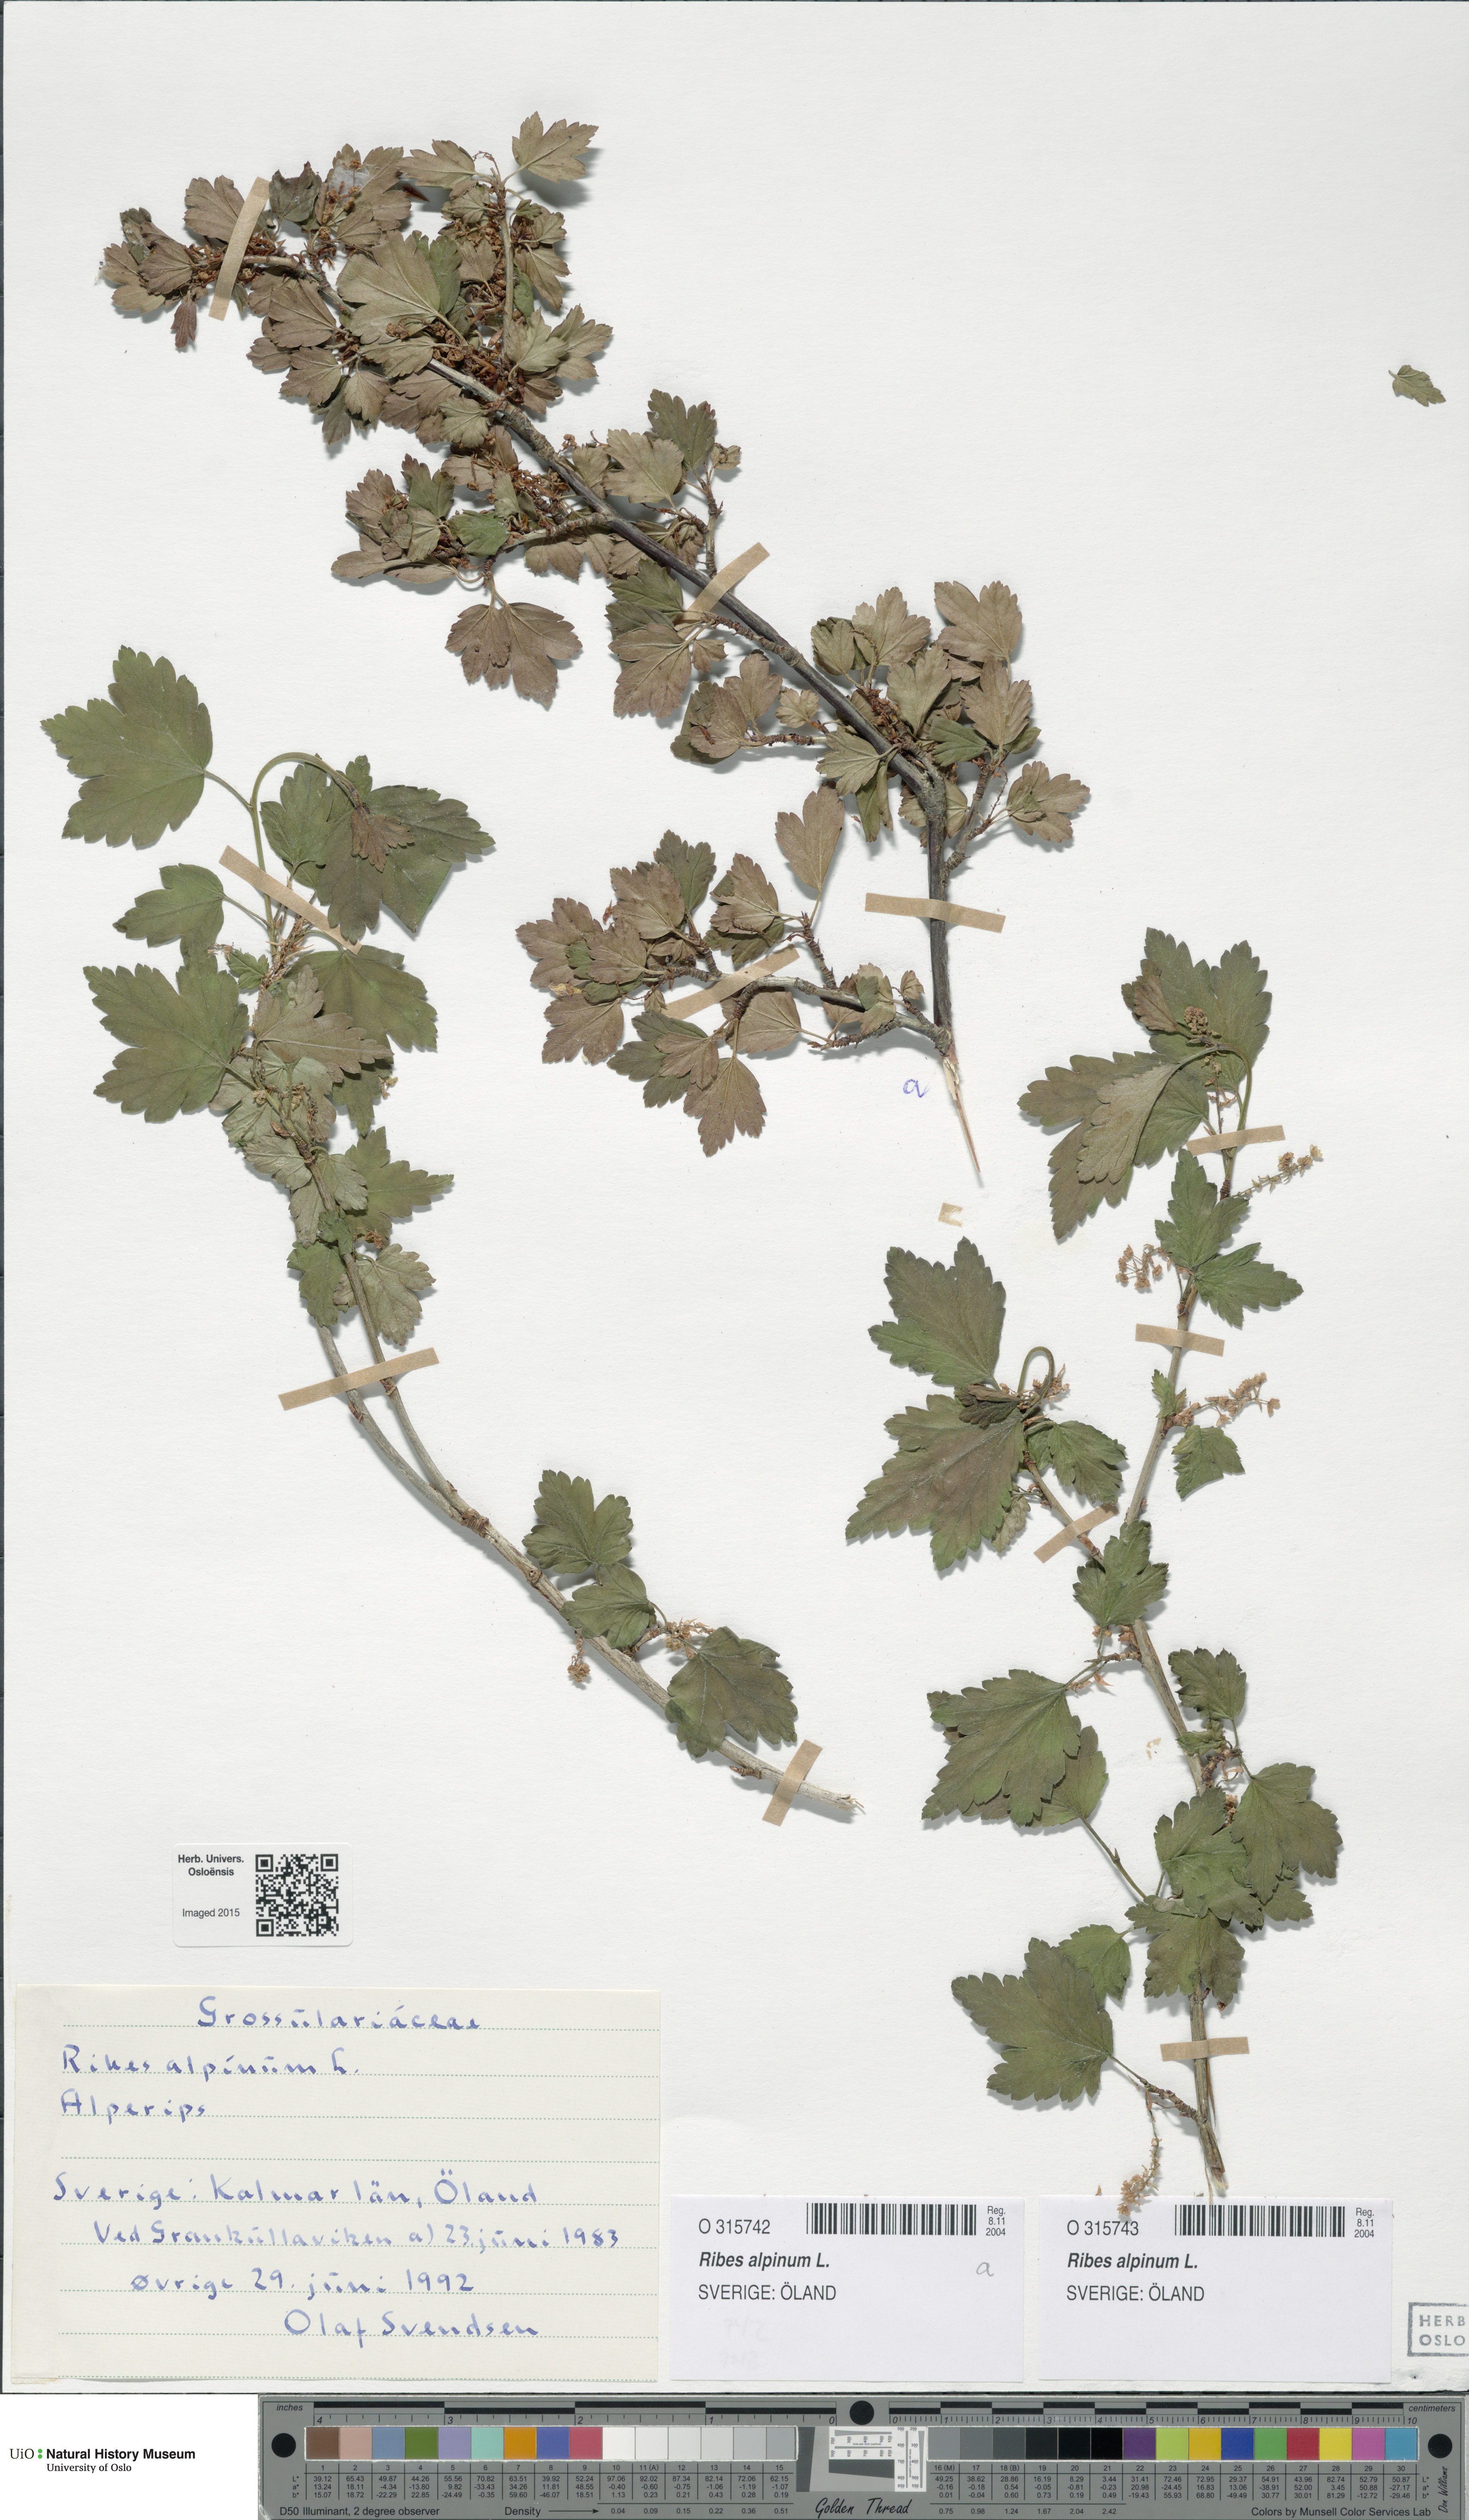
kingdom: Plantae
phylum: Tracheophyta
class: Magnoliopsida
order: Saxifragales
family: Grossulariaceae
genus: Ribes
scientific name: Ribes alpinum
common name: Alpine currant
